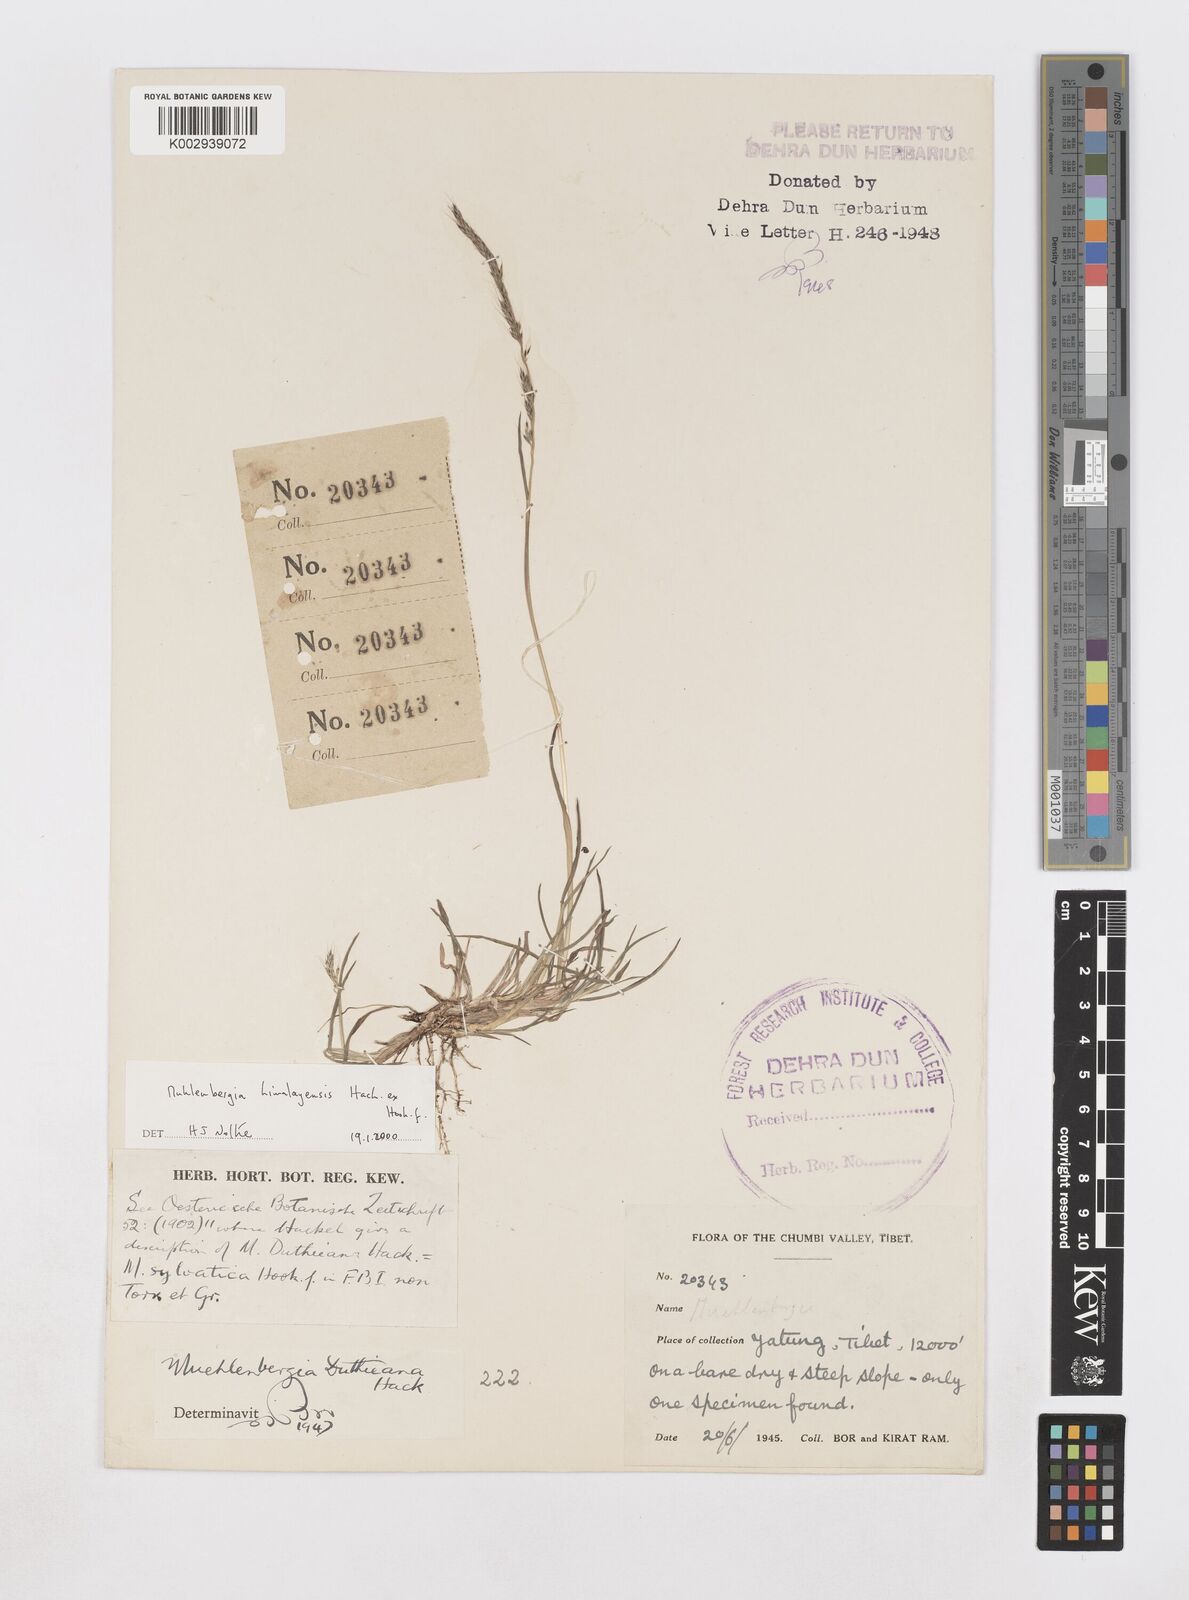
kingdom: Plantae
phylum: Tracheophyta
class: Liliopsida
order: Poales
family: Poaceae
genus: Muhlenbergia
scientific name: Muhlenbergia himalayensis
